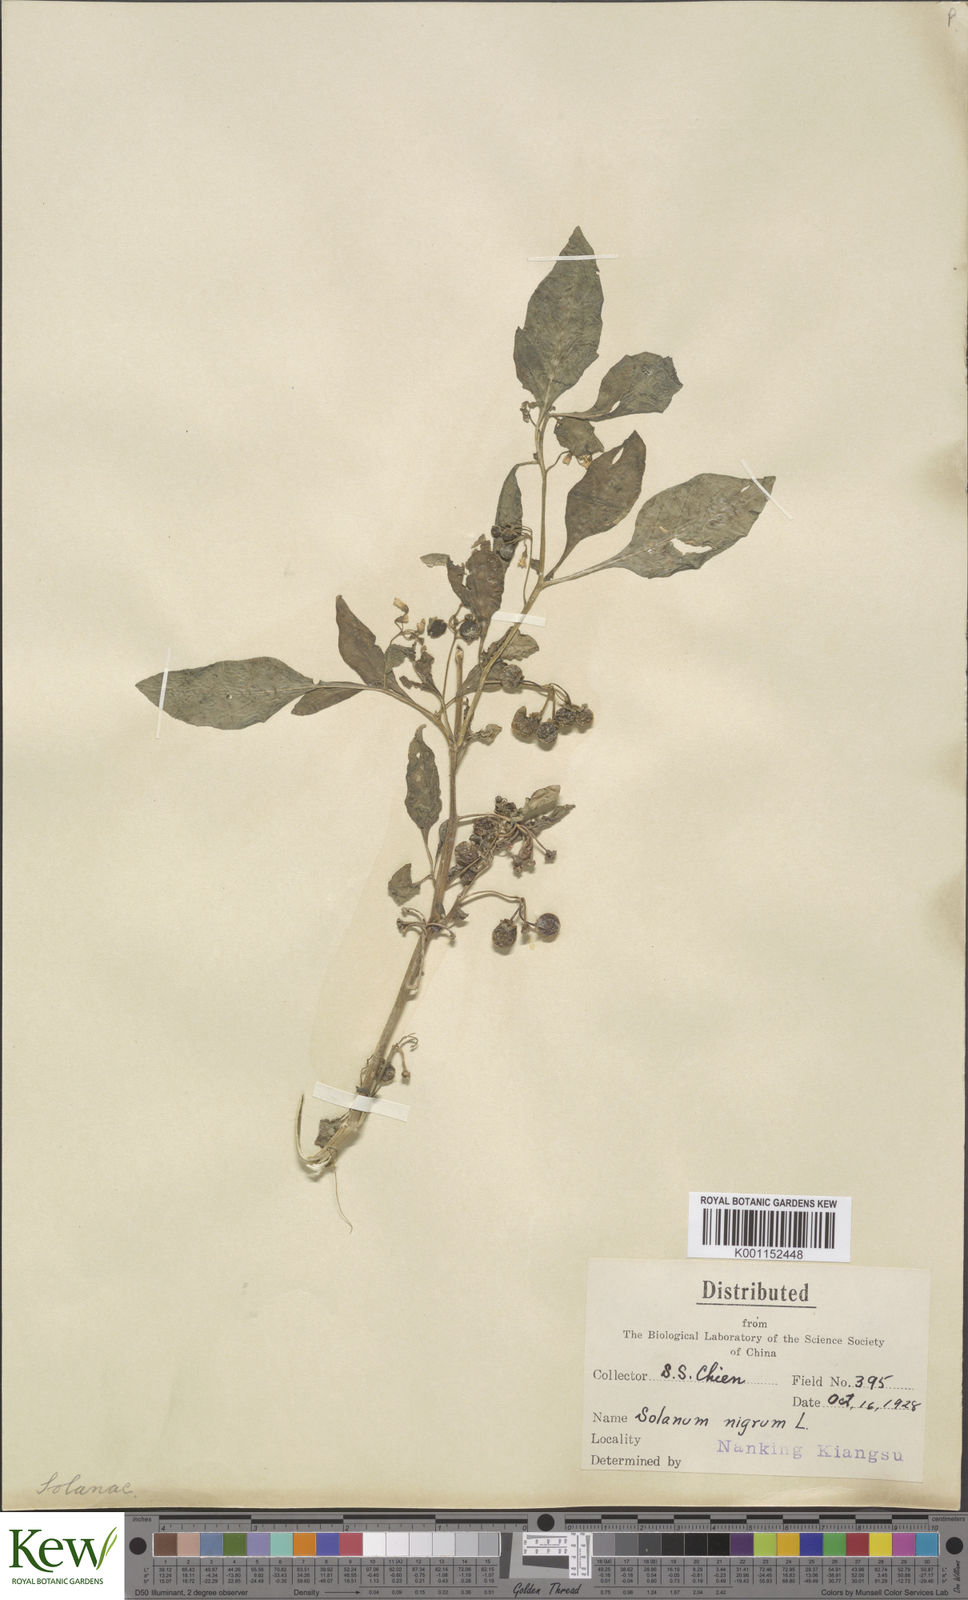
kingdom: Plantae
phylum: Tracheophyta
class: Magnoliopsida
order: Solanales
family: Solanaceae
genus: Solanum
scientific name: Solanum americanum
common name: American black nightshade
